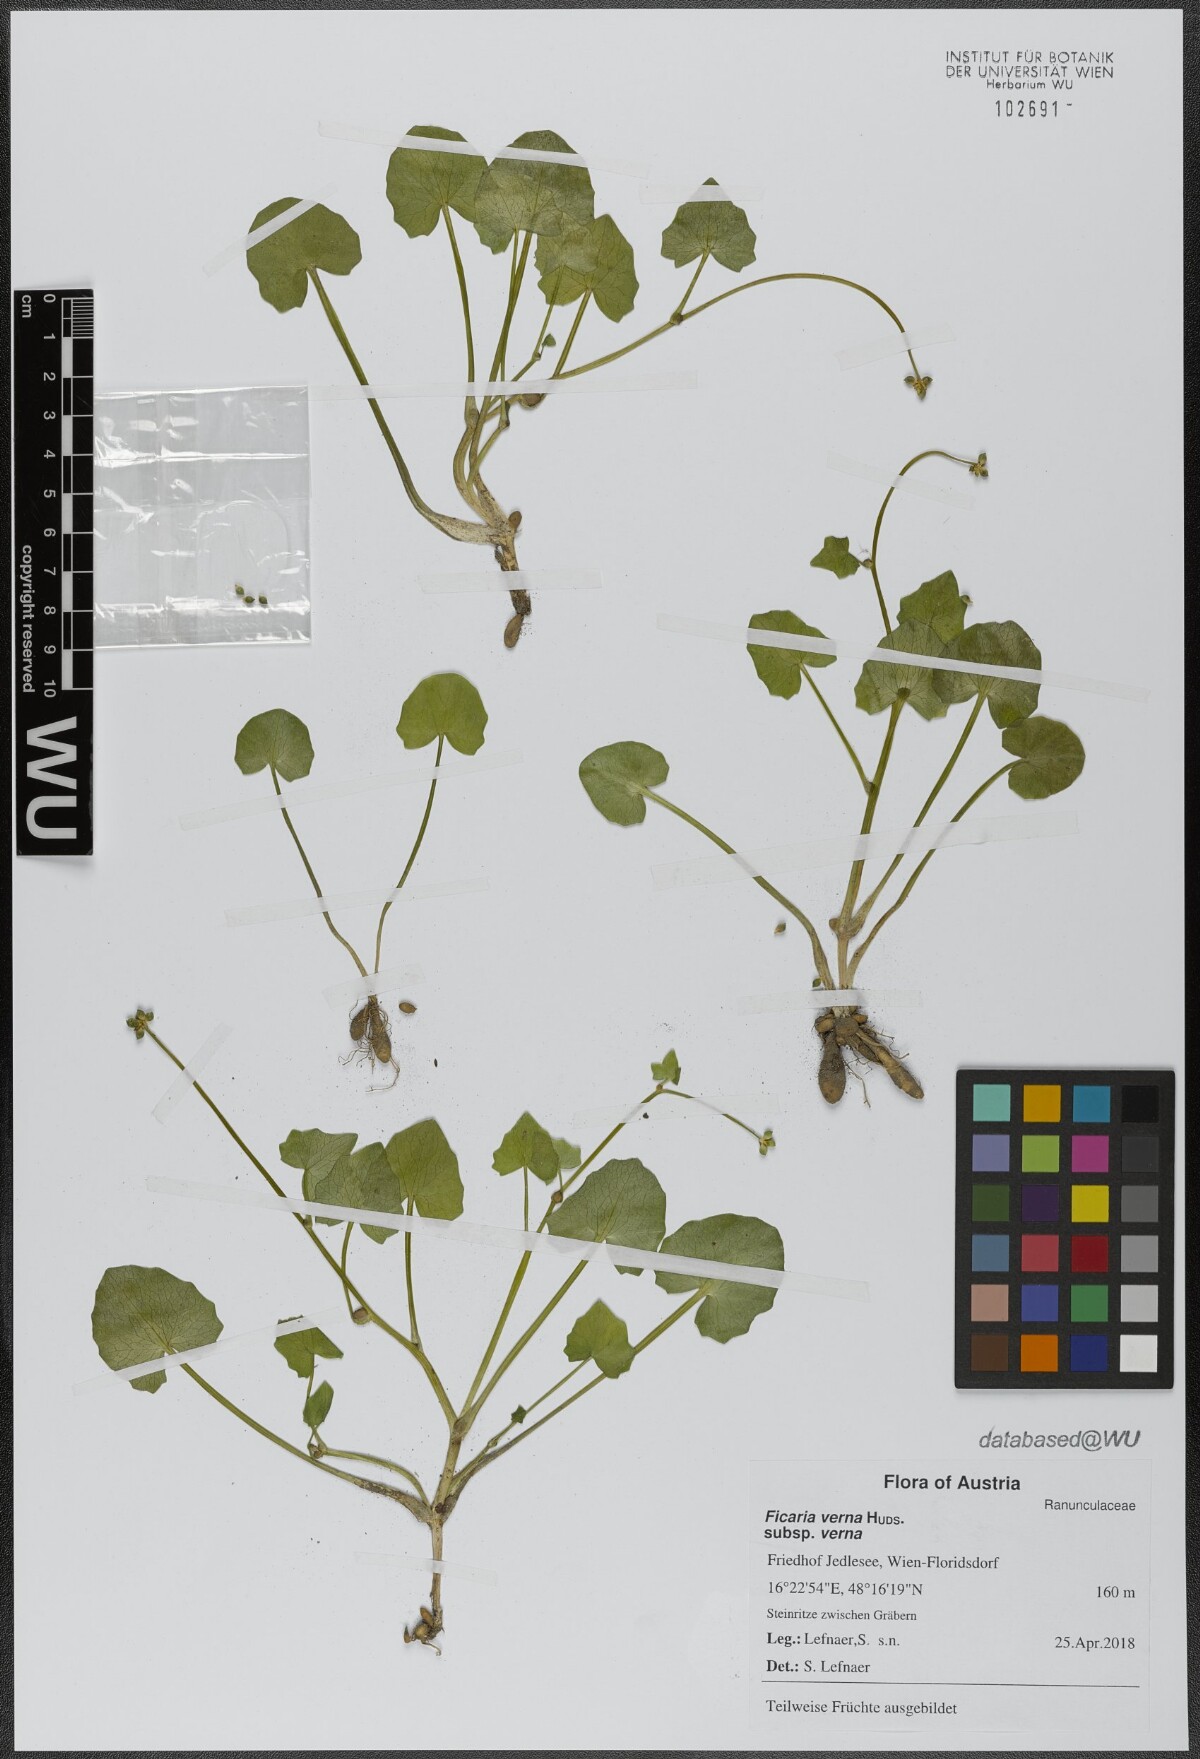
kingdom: Plantae
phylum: Tracheophyta
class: Magnoliopsida
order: Ranunculales
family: Ranunculaceae
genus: Ficaria
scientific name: Ficaria verna
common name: Lesser celandine
